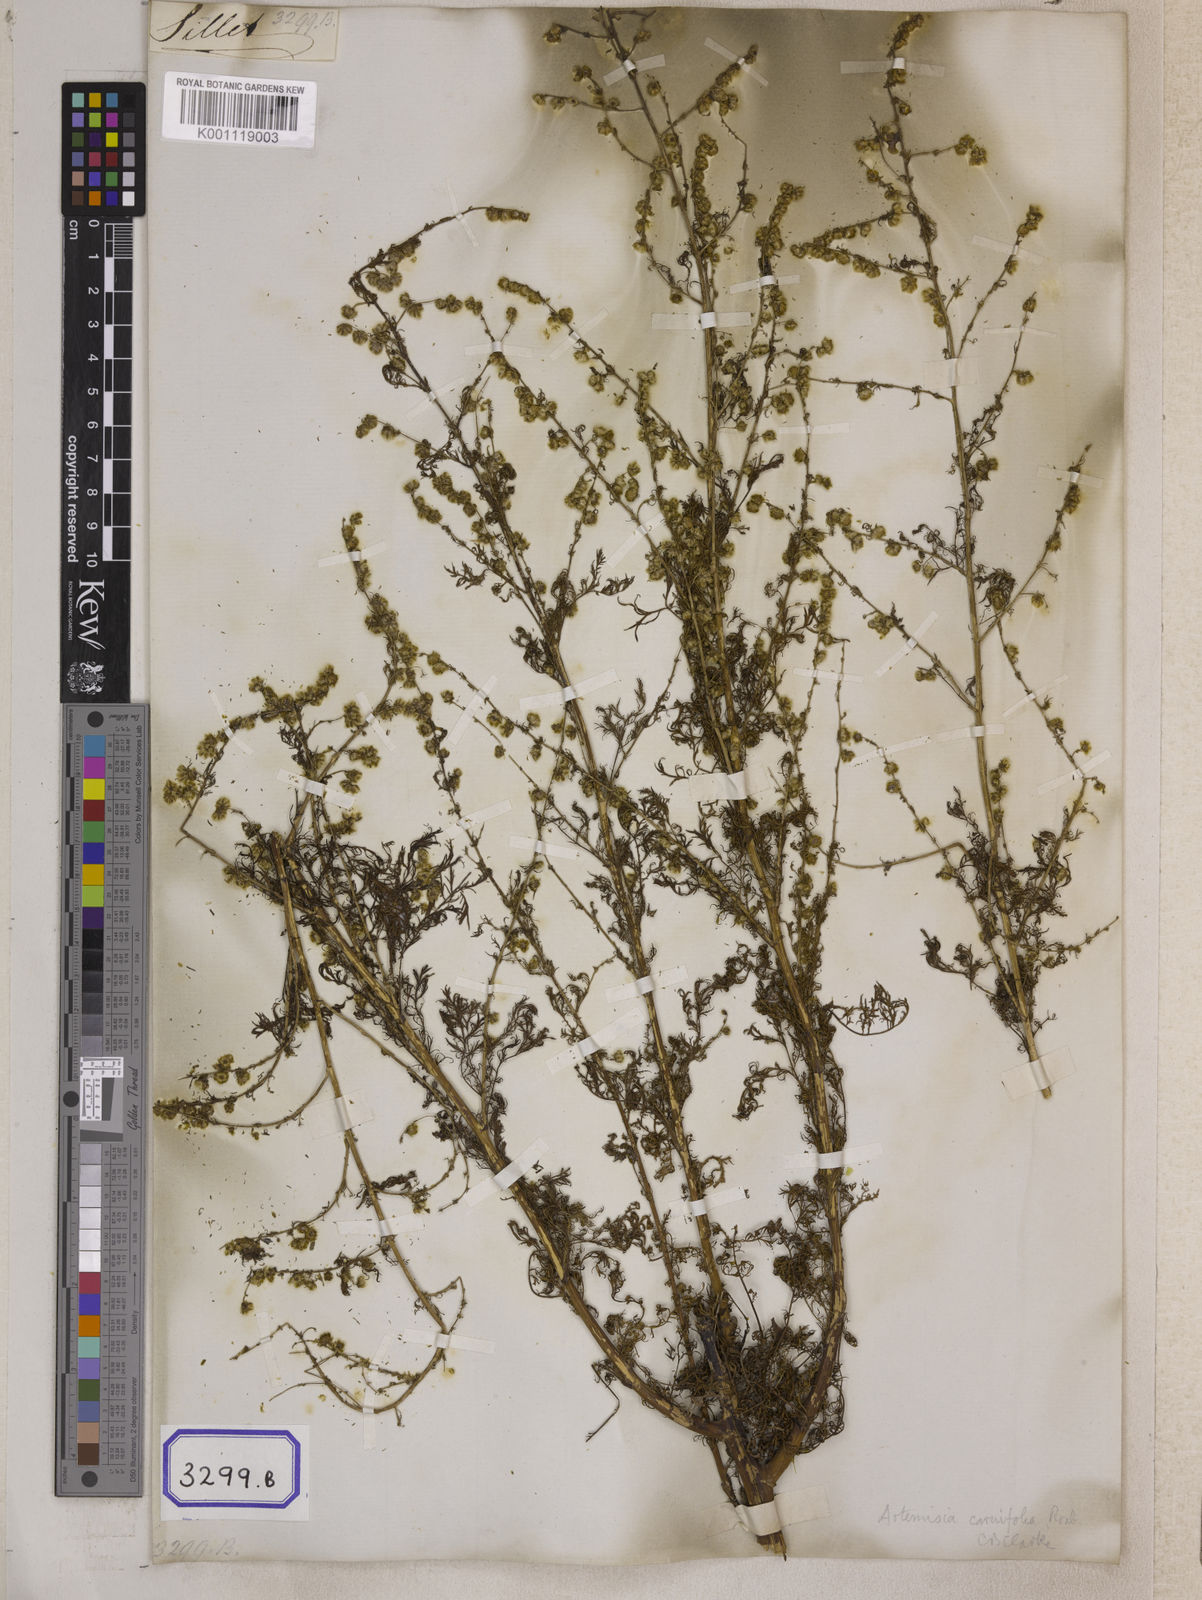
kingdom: Plantae
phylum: Tracheophyta
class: Magnoliopsida
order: Asterales
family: Asteraceae
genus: Artemisia
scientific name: Artemisia
